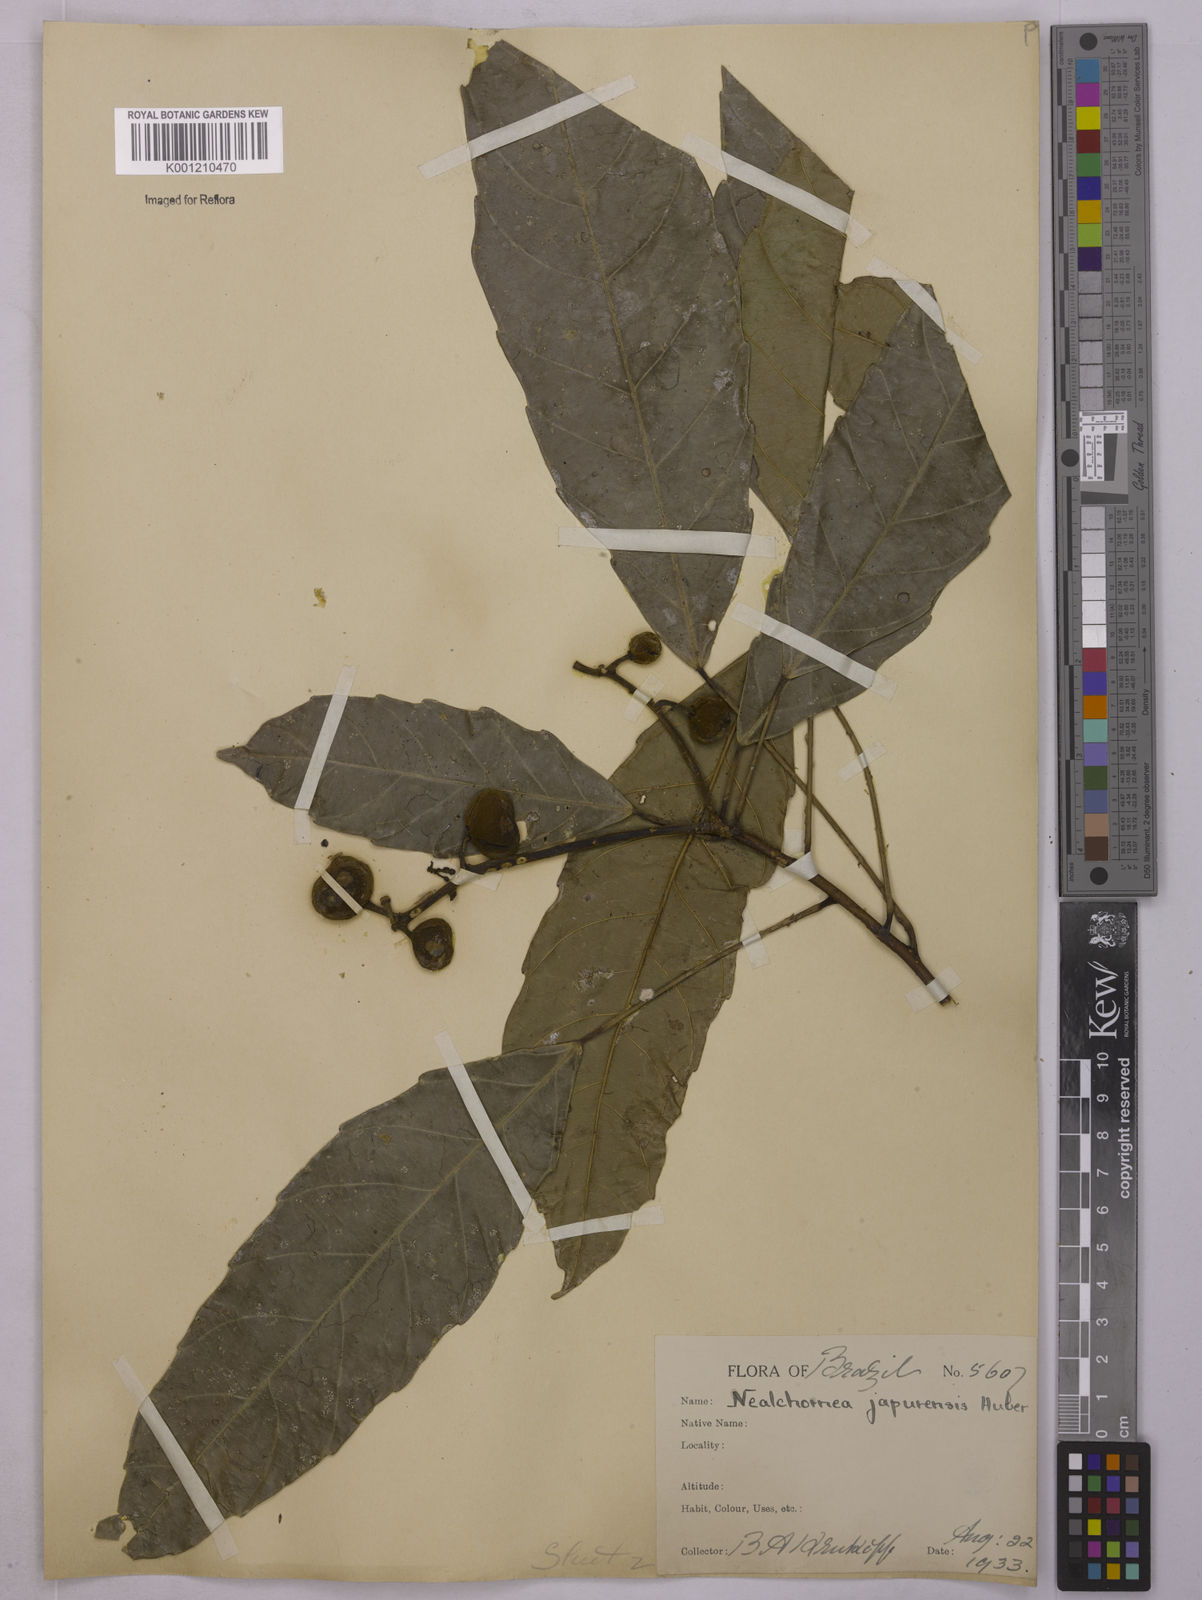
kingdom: Plantae
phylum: Tracheophyta
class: Magnoliopsida
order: Malpighiales
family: Euphorbiaceae
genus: Nealchornea
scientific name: Nealchornea yapurensis
